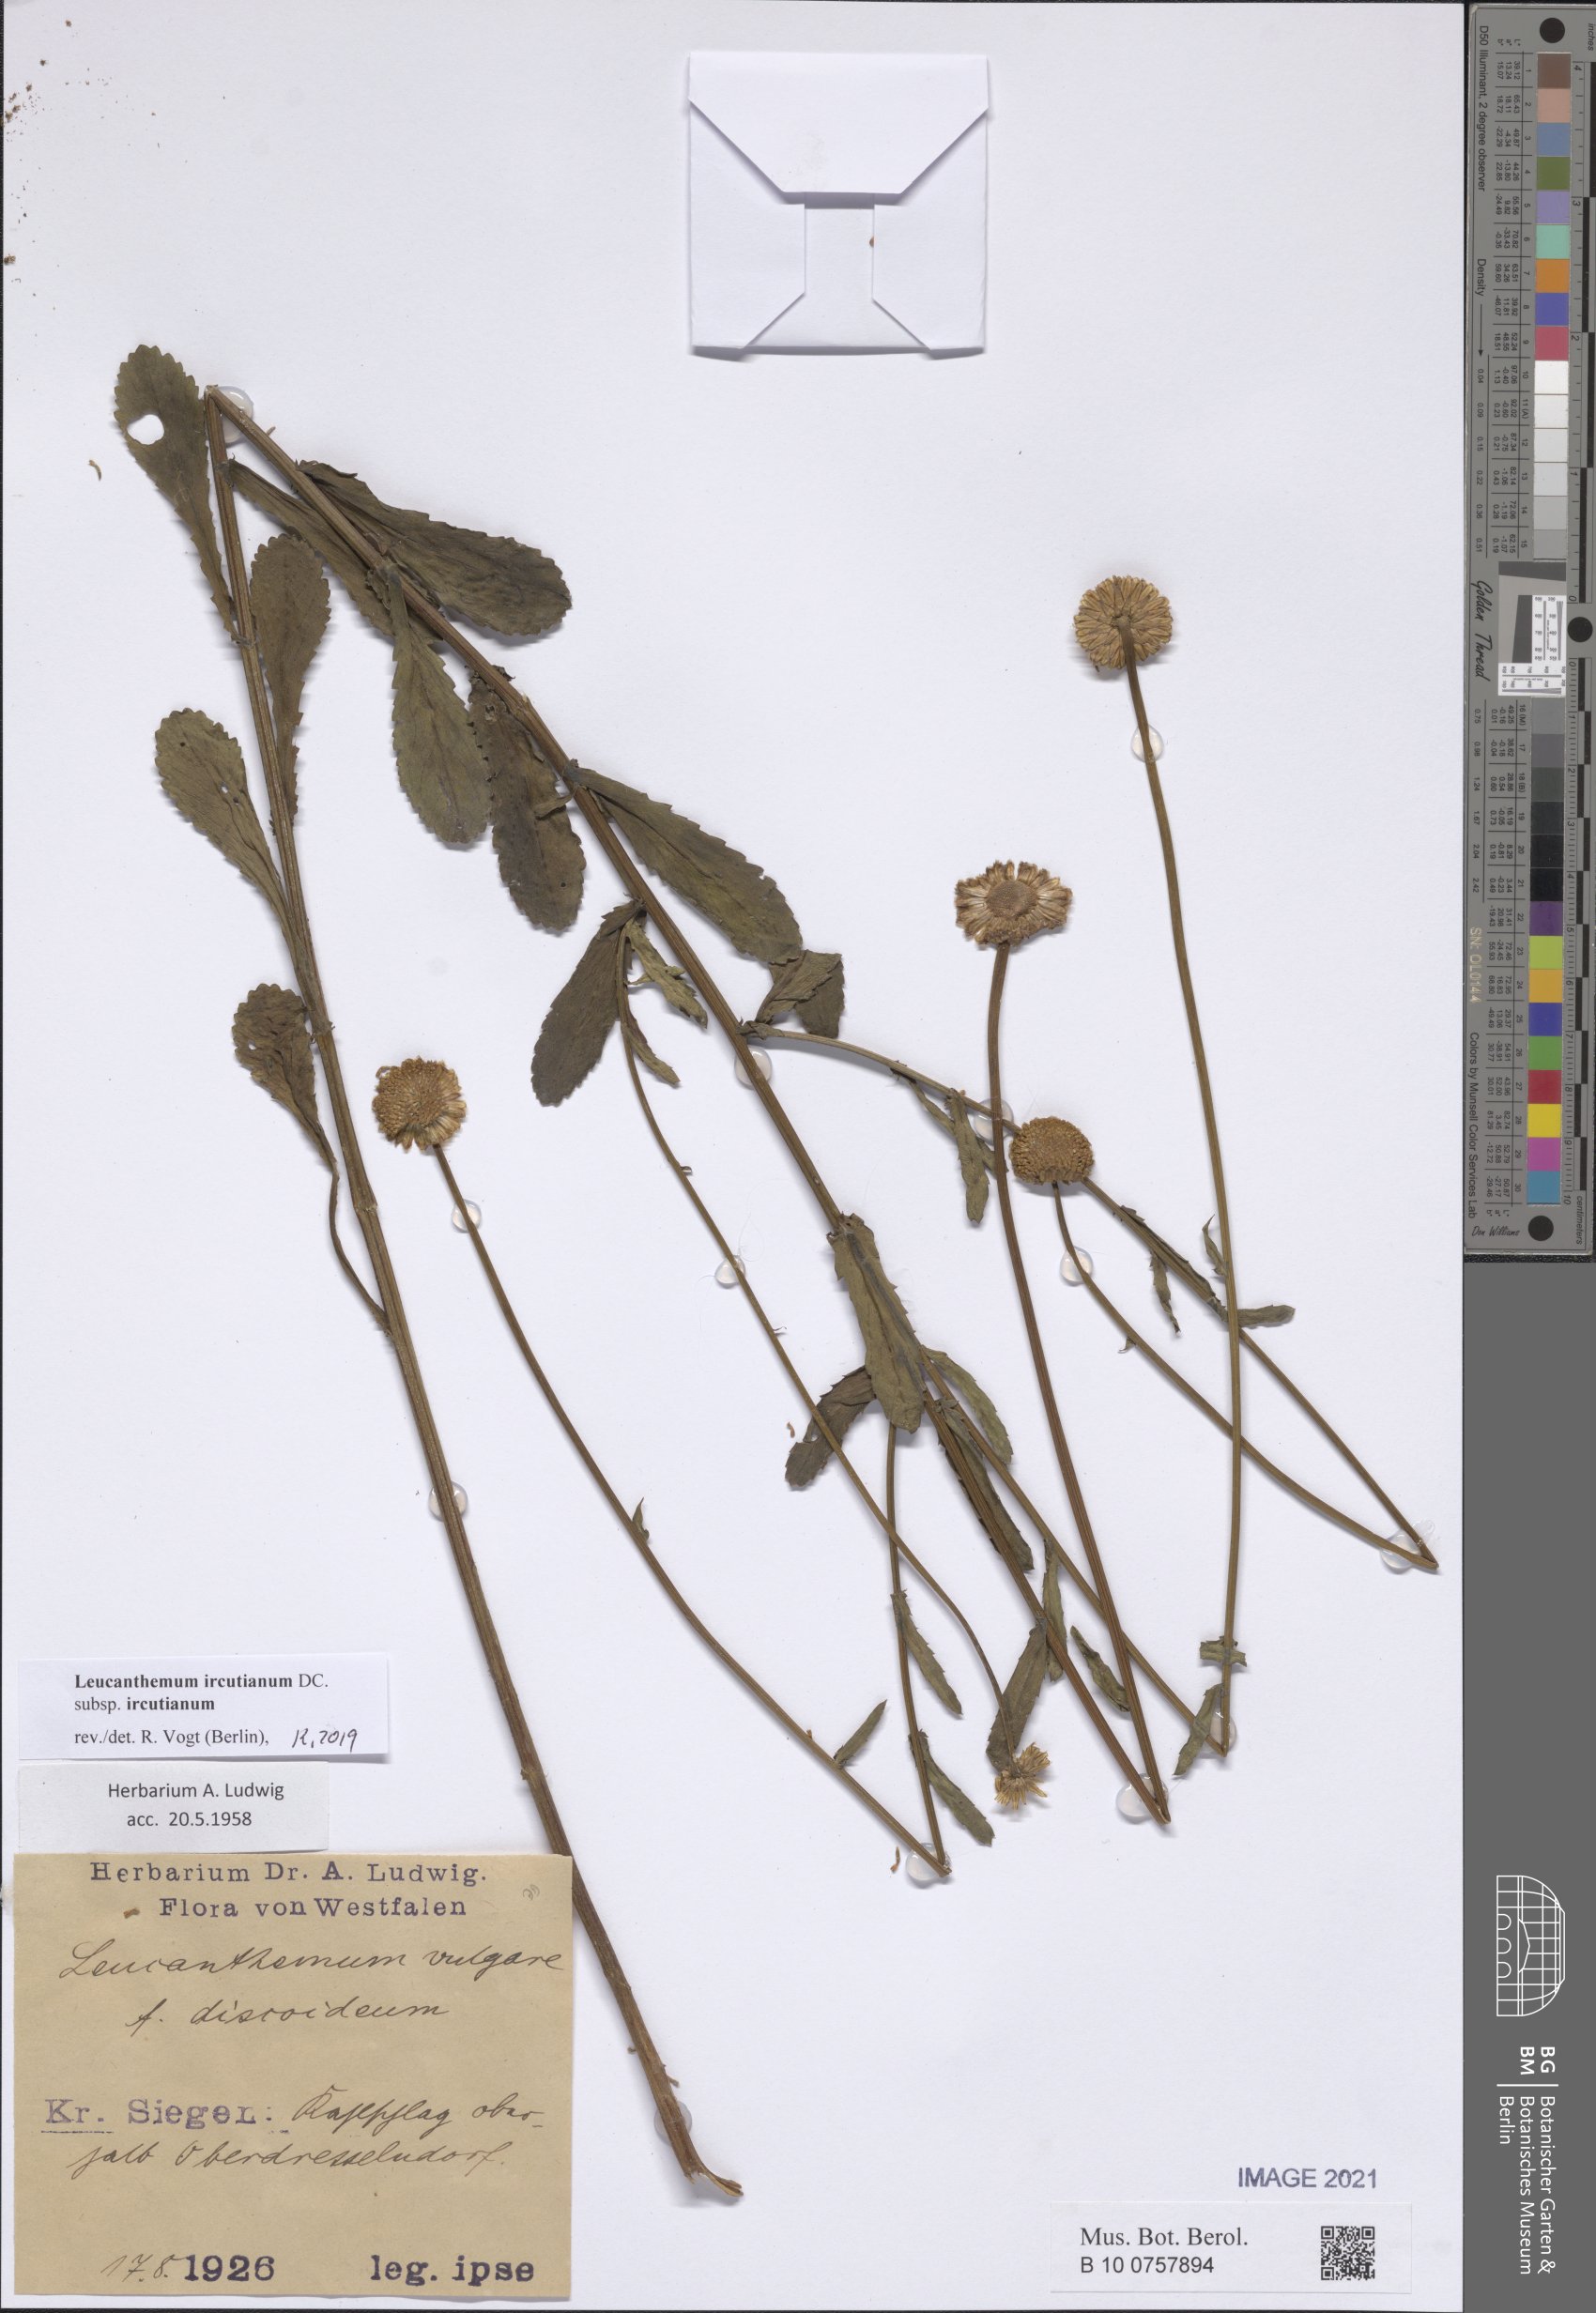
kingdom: Plantae
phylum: Tracheophyta
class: Magnoliopsida
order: Asterales
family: Asteraceae
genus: Leucanthemum
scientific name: Leucanthemum ircutianum
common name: Daisy
